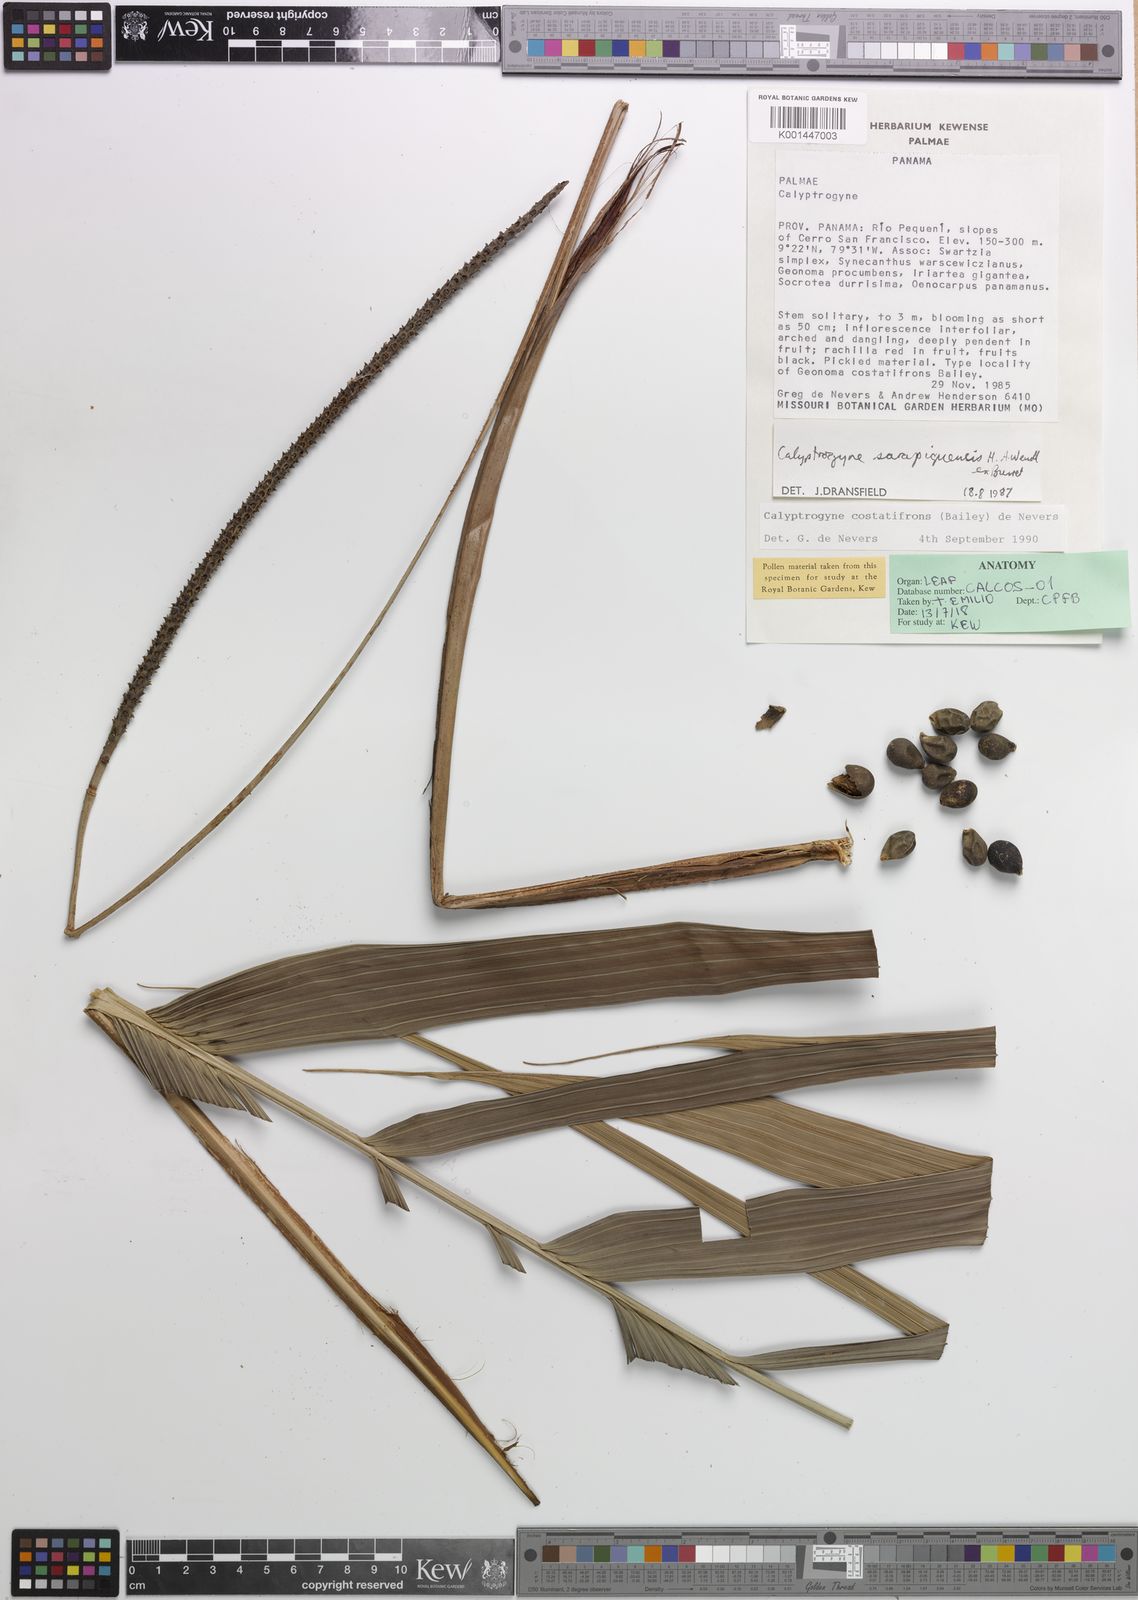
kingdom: Plantae
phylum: Tracheophyta
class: Liliopsida
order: Arecales
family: Arecaceae
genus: Calyptrogyne
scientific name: Calyptrogyne costatifrons
